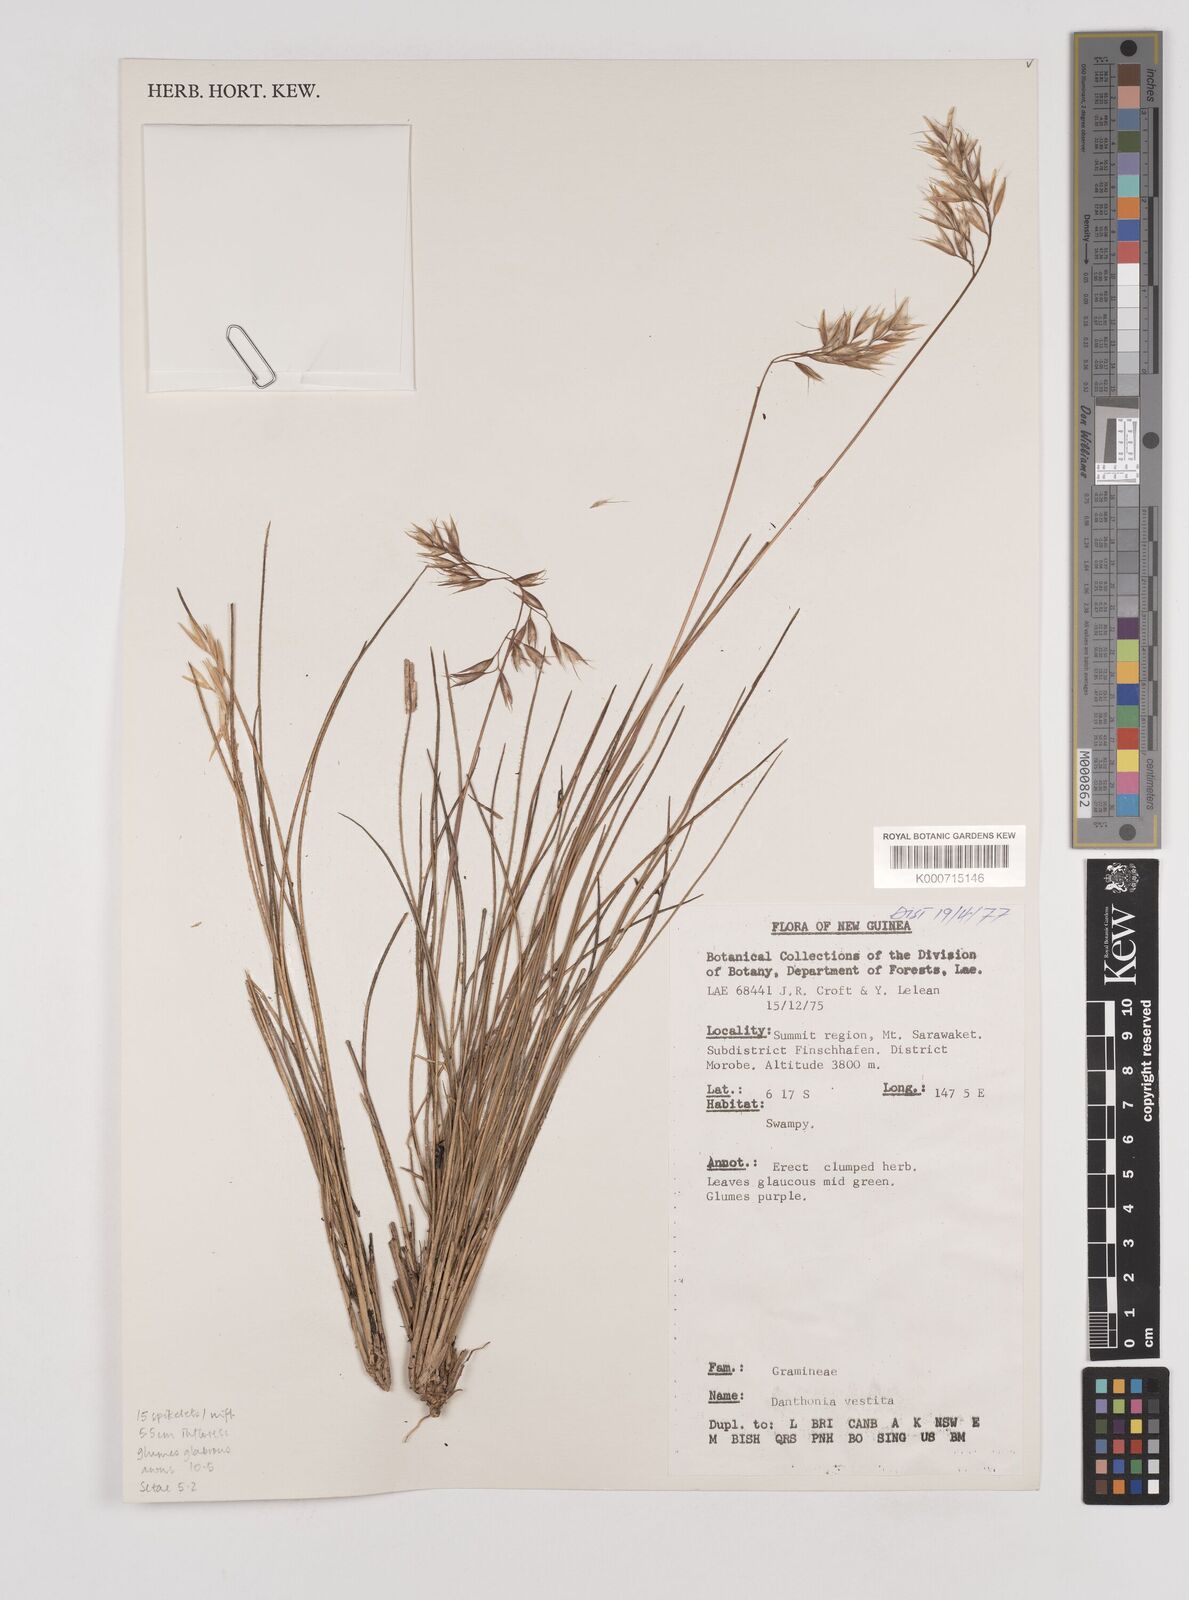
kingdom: Plantae
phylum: Tracheophyta
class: Liliopsida
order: Poales
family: Poaceae
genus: Rytidosperma
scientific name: Rytidosperma vestitum
